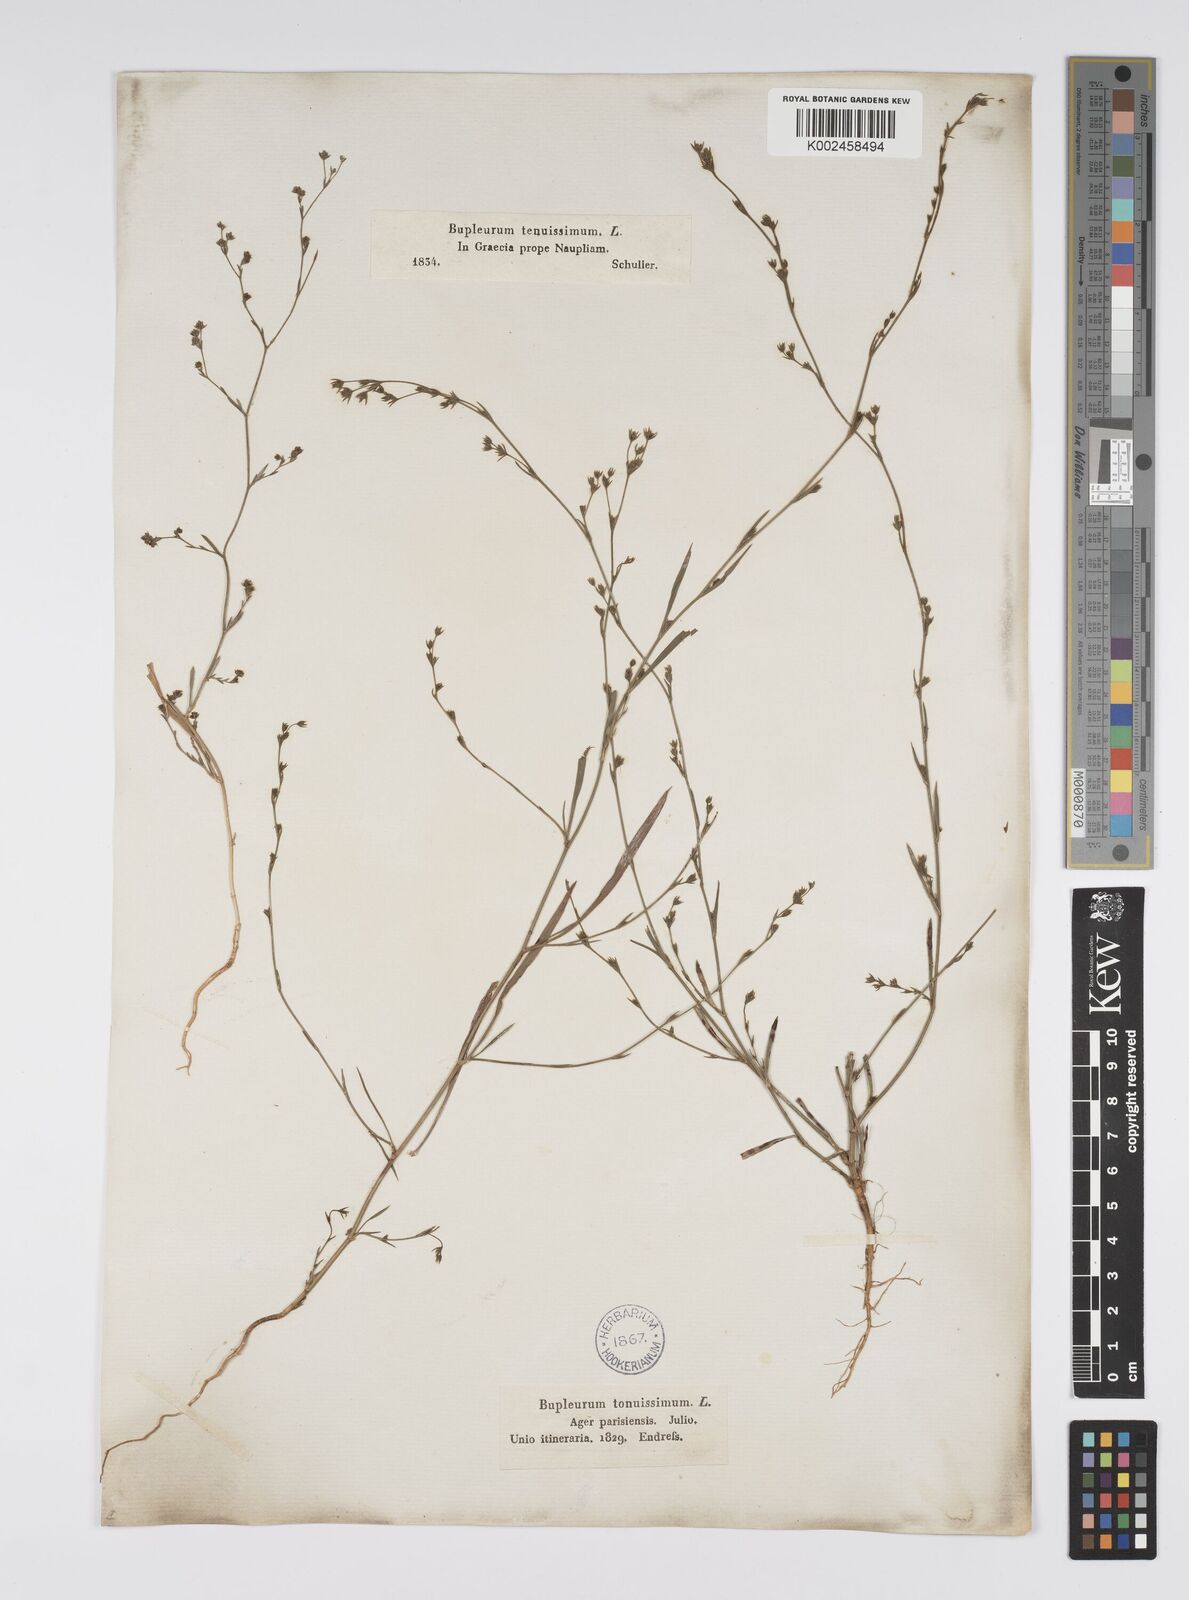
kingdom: Plantae
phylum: Tracheophyta
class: Magnoliopsida
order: Apiales
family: Apiaceae
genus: Bupleurum
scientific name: Bupleurum tenuissimum
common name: Slender hare's-ear
